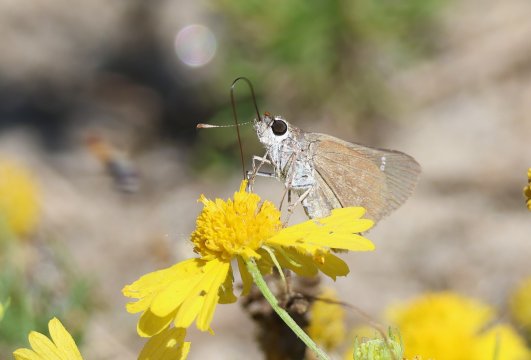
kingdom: Animalia
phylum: Arthropoda
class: Insecta
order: Lepidoptera
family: Hesperiidae
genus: Lerodea
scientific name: Lerodea eufala
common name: Eufala Skipper
